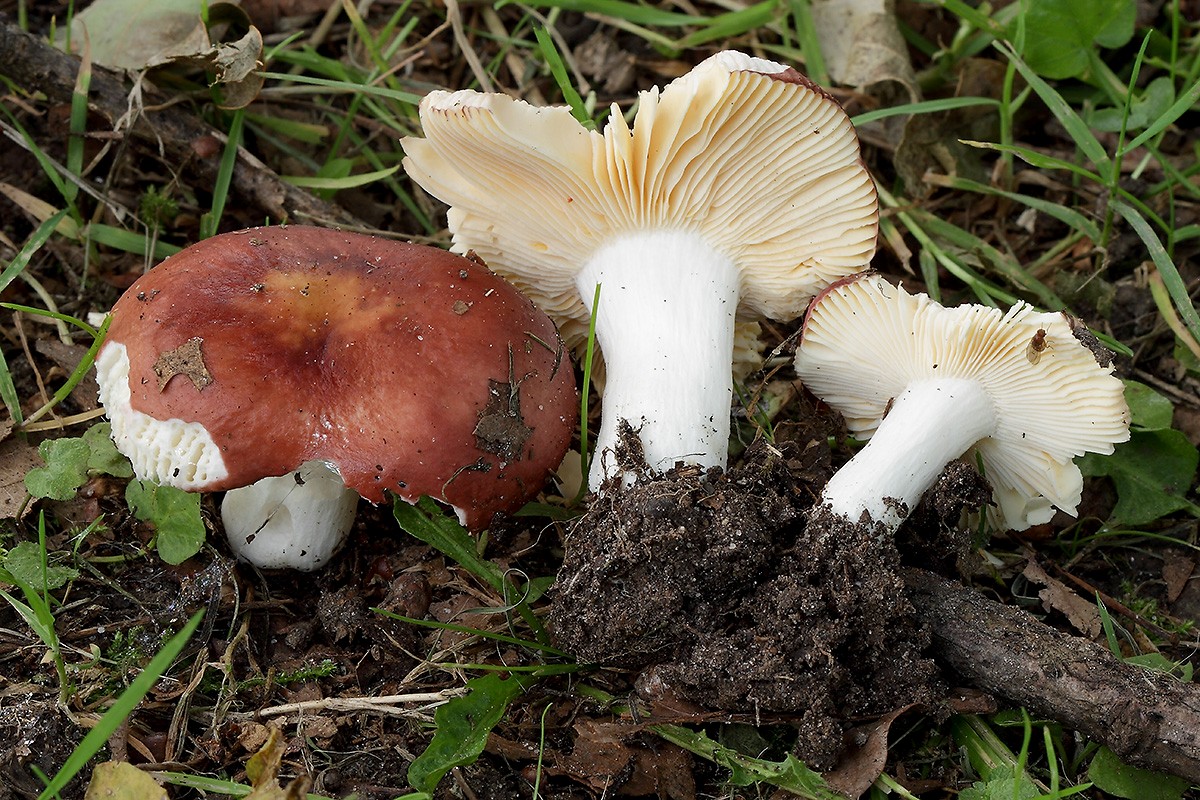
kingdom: Fungi
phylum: Basidiomycota
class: Agaricomycetes
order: Russulales
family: Russulaceae
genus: Russula
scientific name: Russula cuprea
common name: kanel-skørhat
